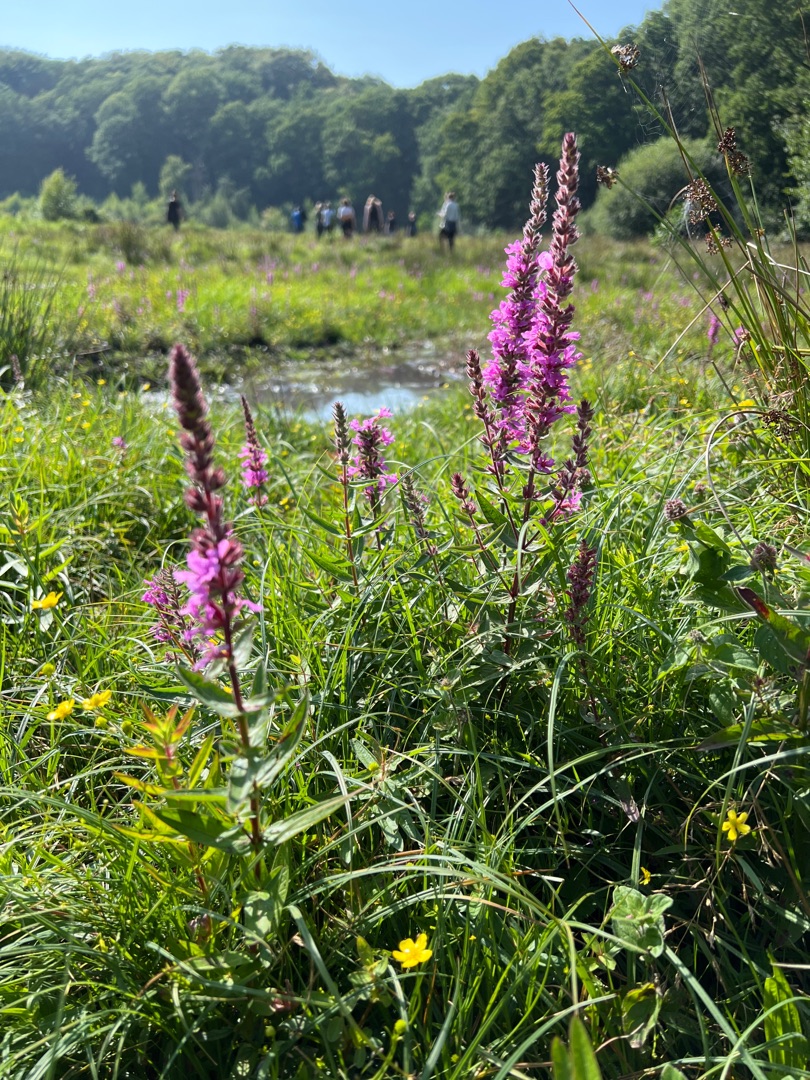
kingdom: Plantae
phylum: Tracheophyta
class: Magnoliopsida
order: Myrtales
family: Lythraceae
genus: Lythrum
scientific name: Lythrum salicaria
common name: Kattehale
